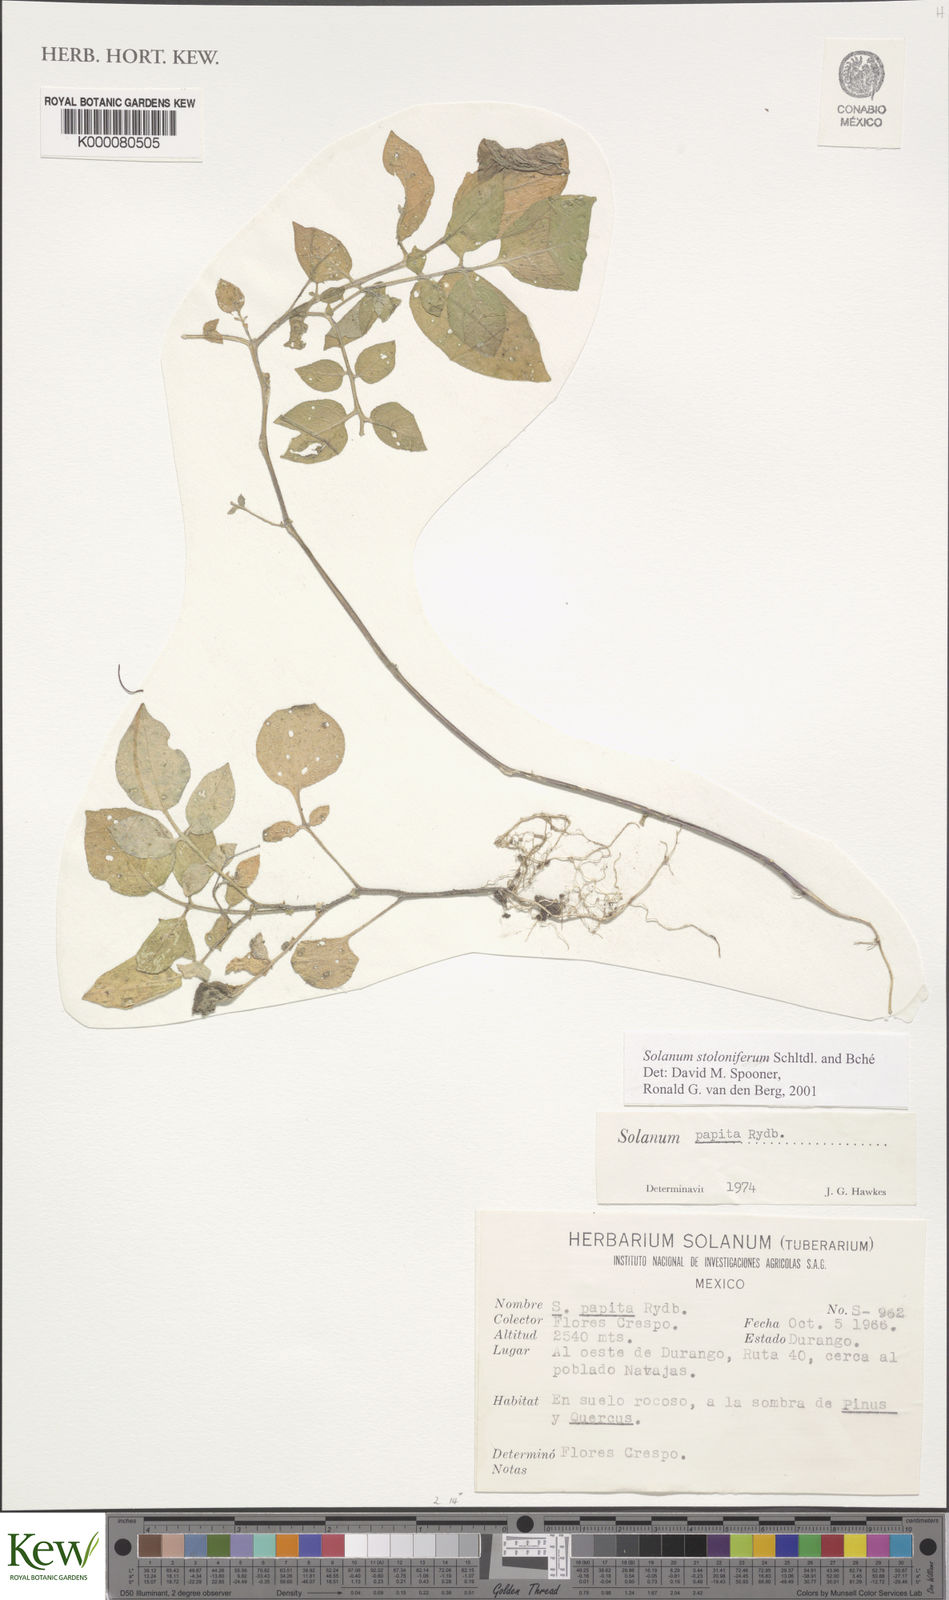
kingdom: Plantae
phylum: Tracheophyta
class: Magnoliopsida
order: Solanales
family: Solanaceae
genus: Solanum
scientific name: Solanum stoloniferum
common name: Fendler's nighshade
